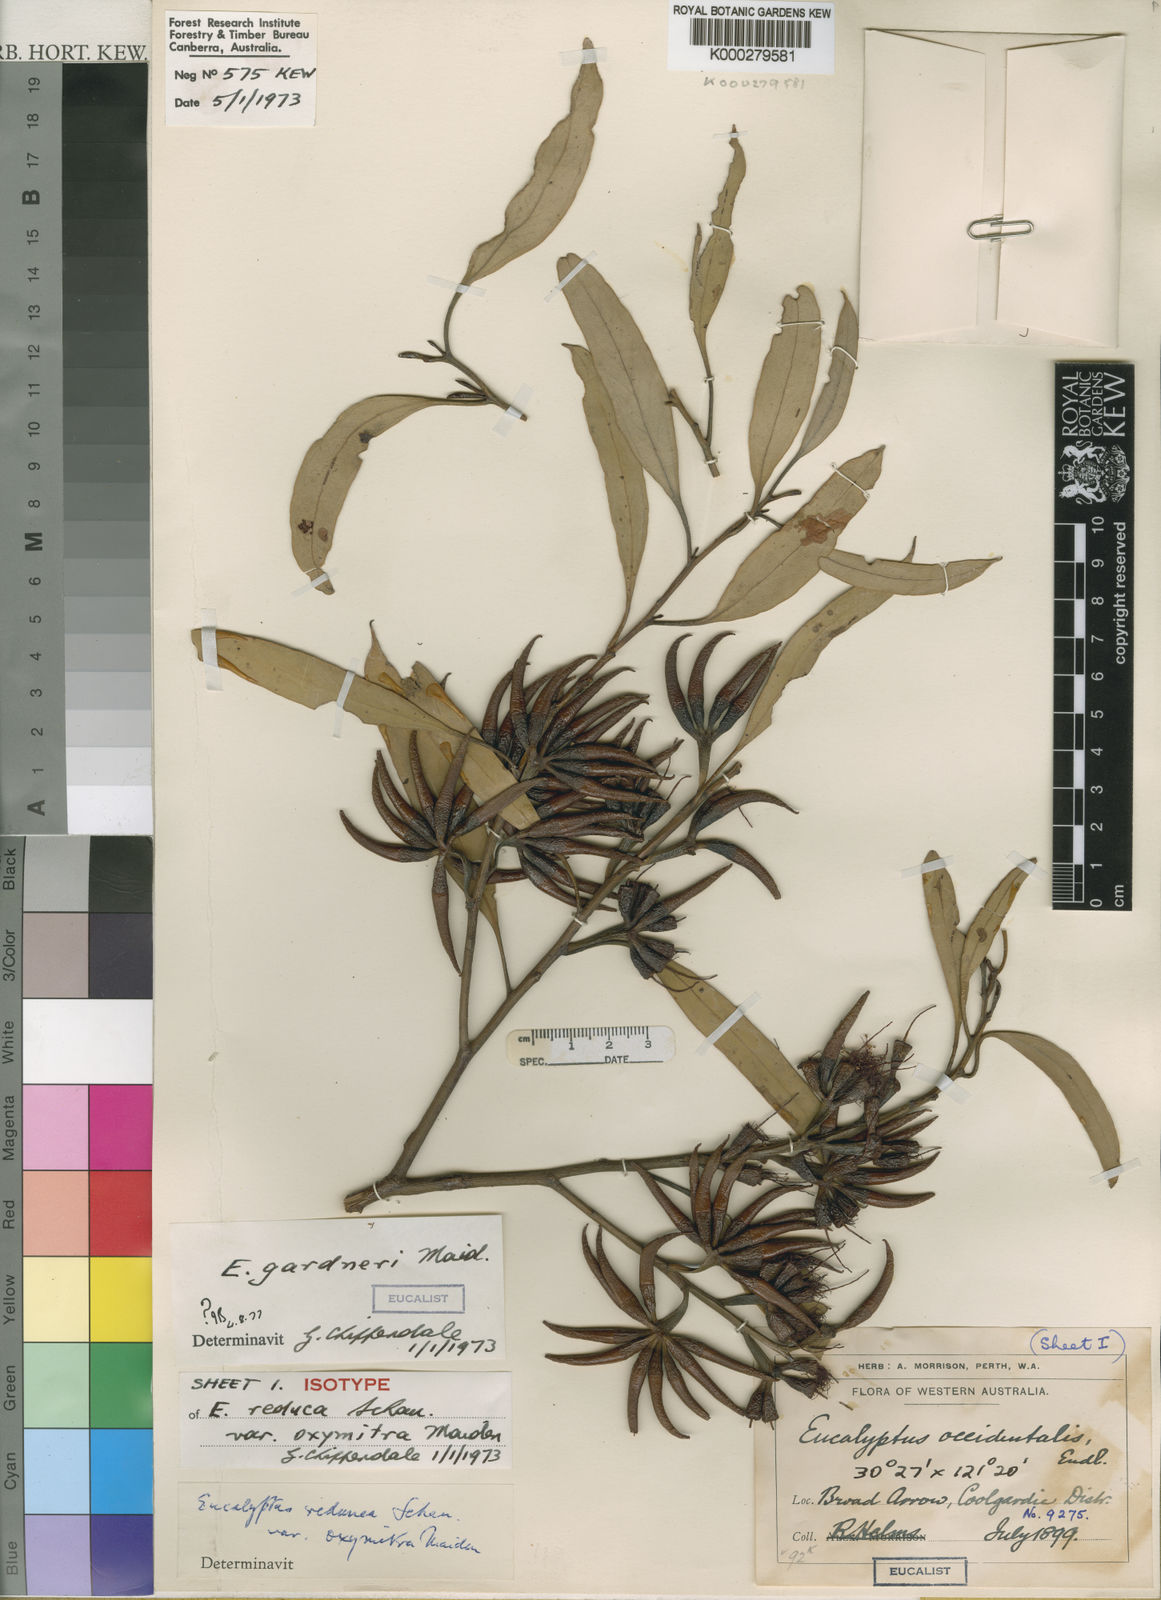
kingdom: Plantae
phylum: Tracheophyta
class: Magnoliopsida
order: Myrtales
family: Myrtaceae
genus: Eucalyptus
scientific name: Eucalyptus flavida
